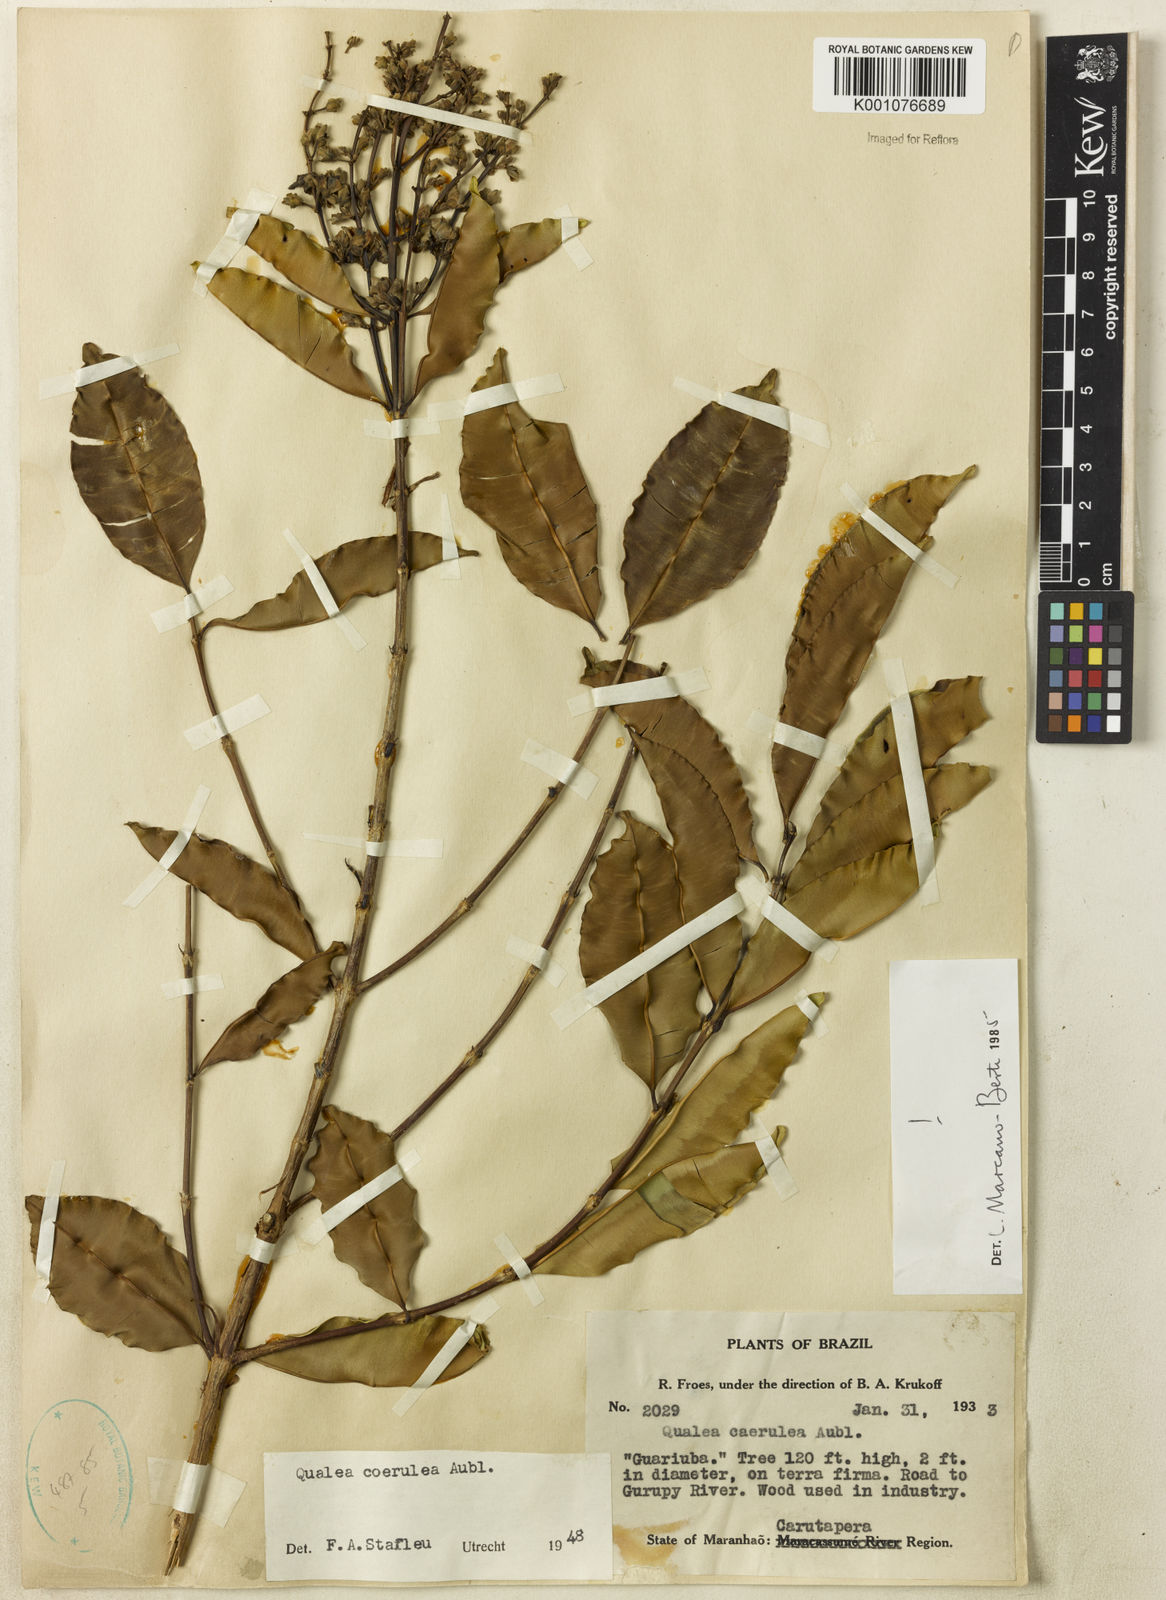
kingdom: Plantae
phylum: Tracheophyta
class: Magnoliopsida
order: Myrtales
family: Vochysiaceae
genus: Qualea
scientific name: Qualea
